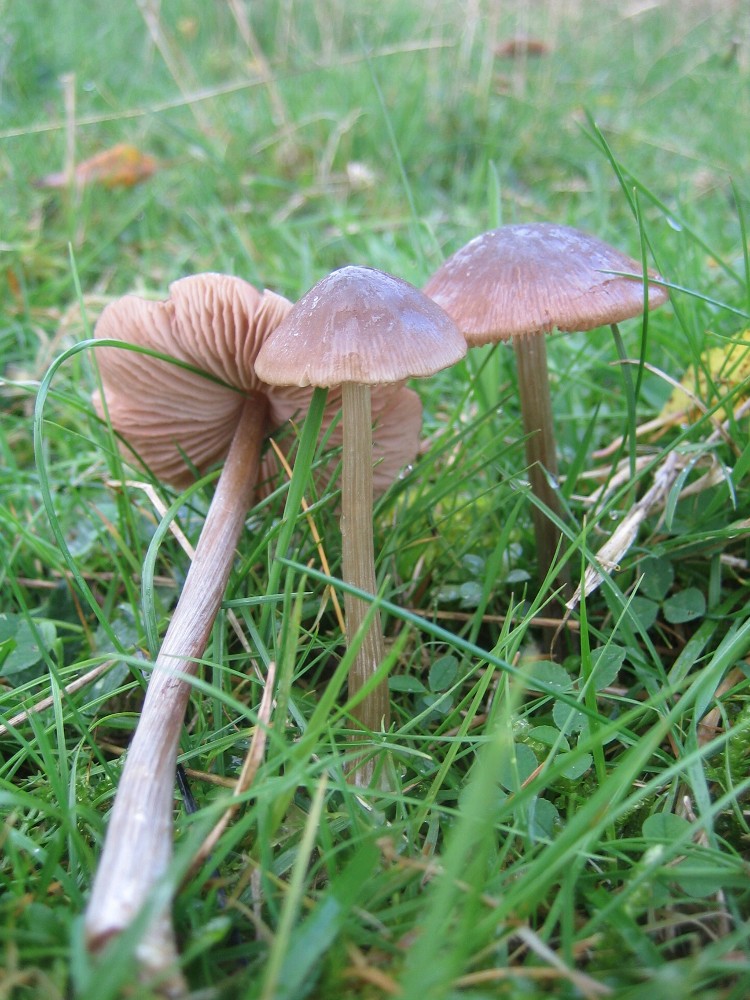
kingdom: Fungi
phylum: Basidiomycota
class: Agaricomycetes
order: Agaricales
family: Entolomataceae
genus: Entoloma
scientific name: Entoloma conferendum
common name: stjernesporet rødblad
